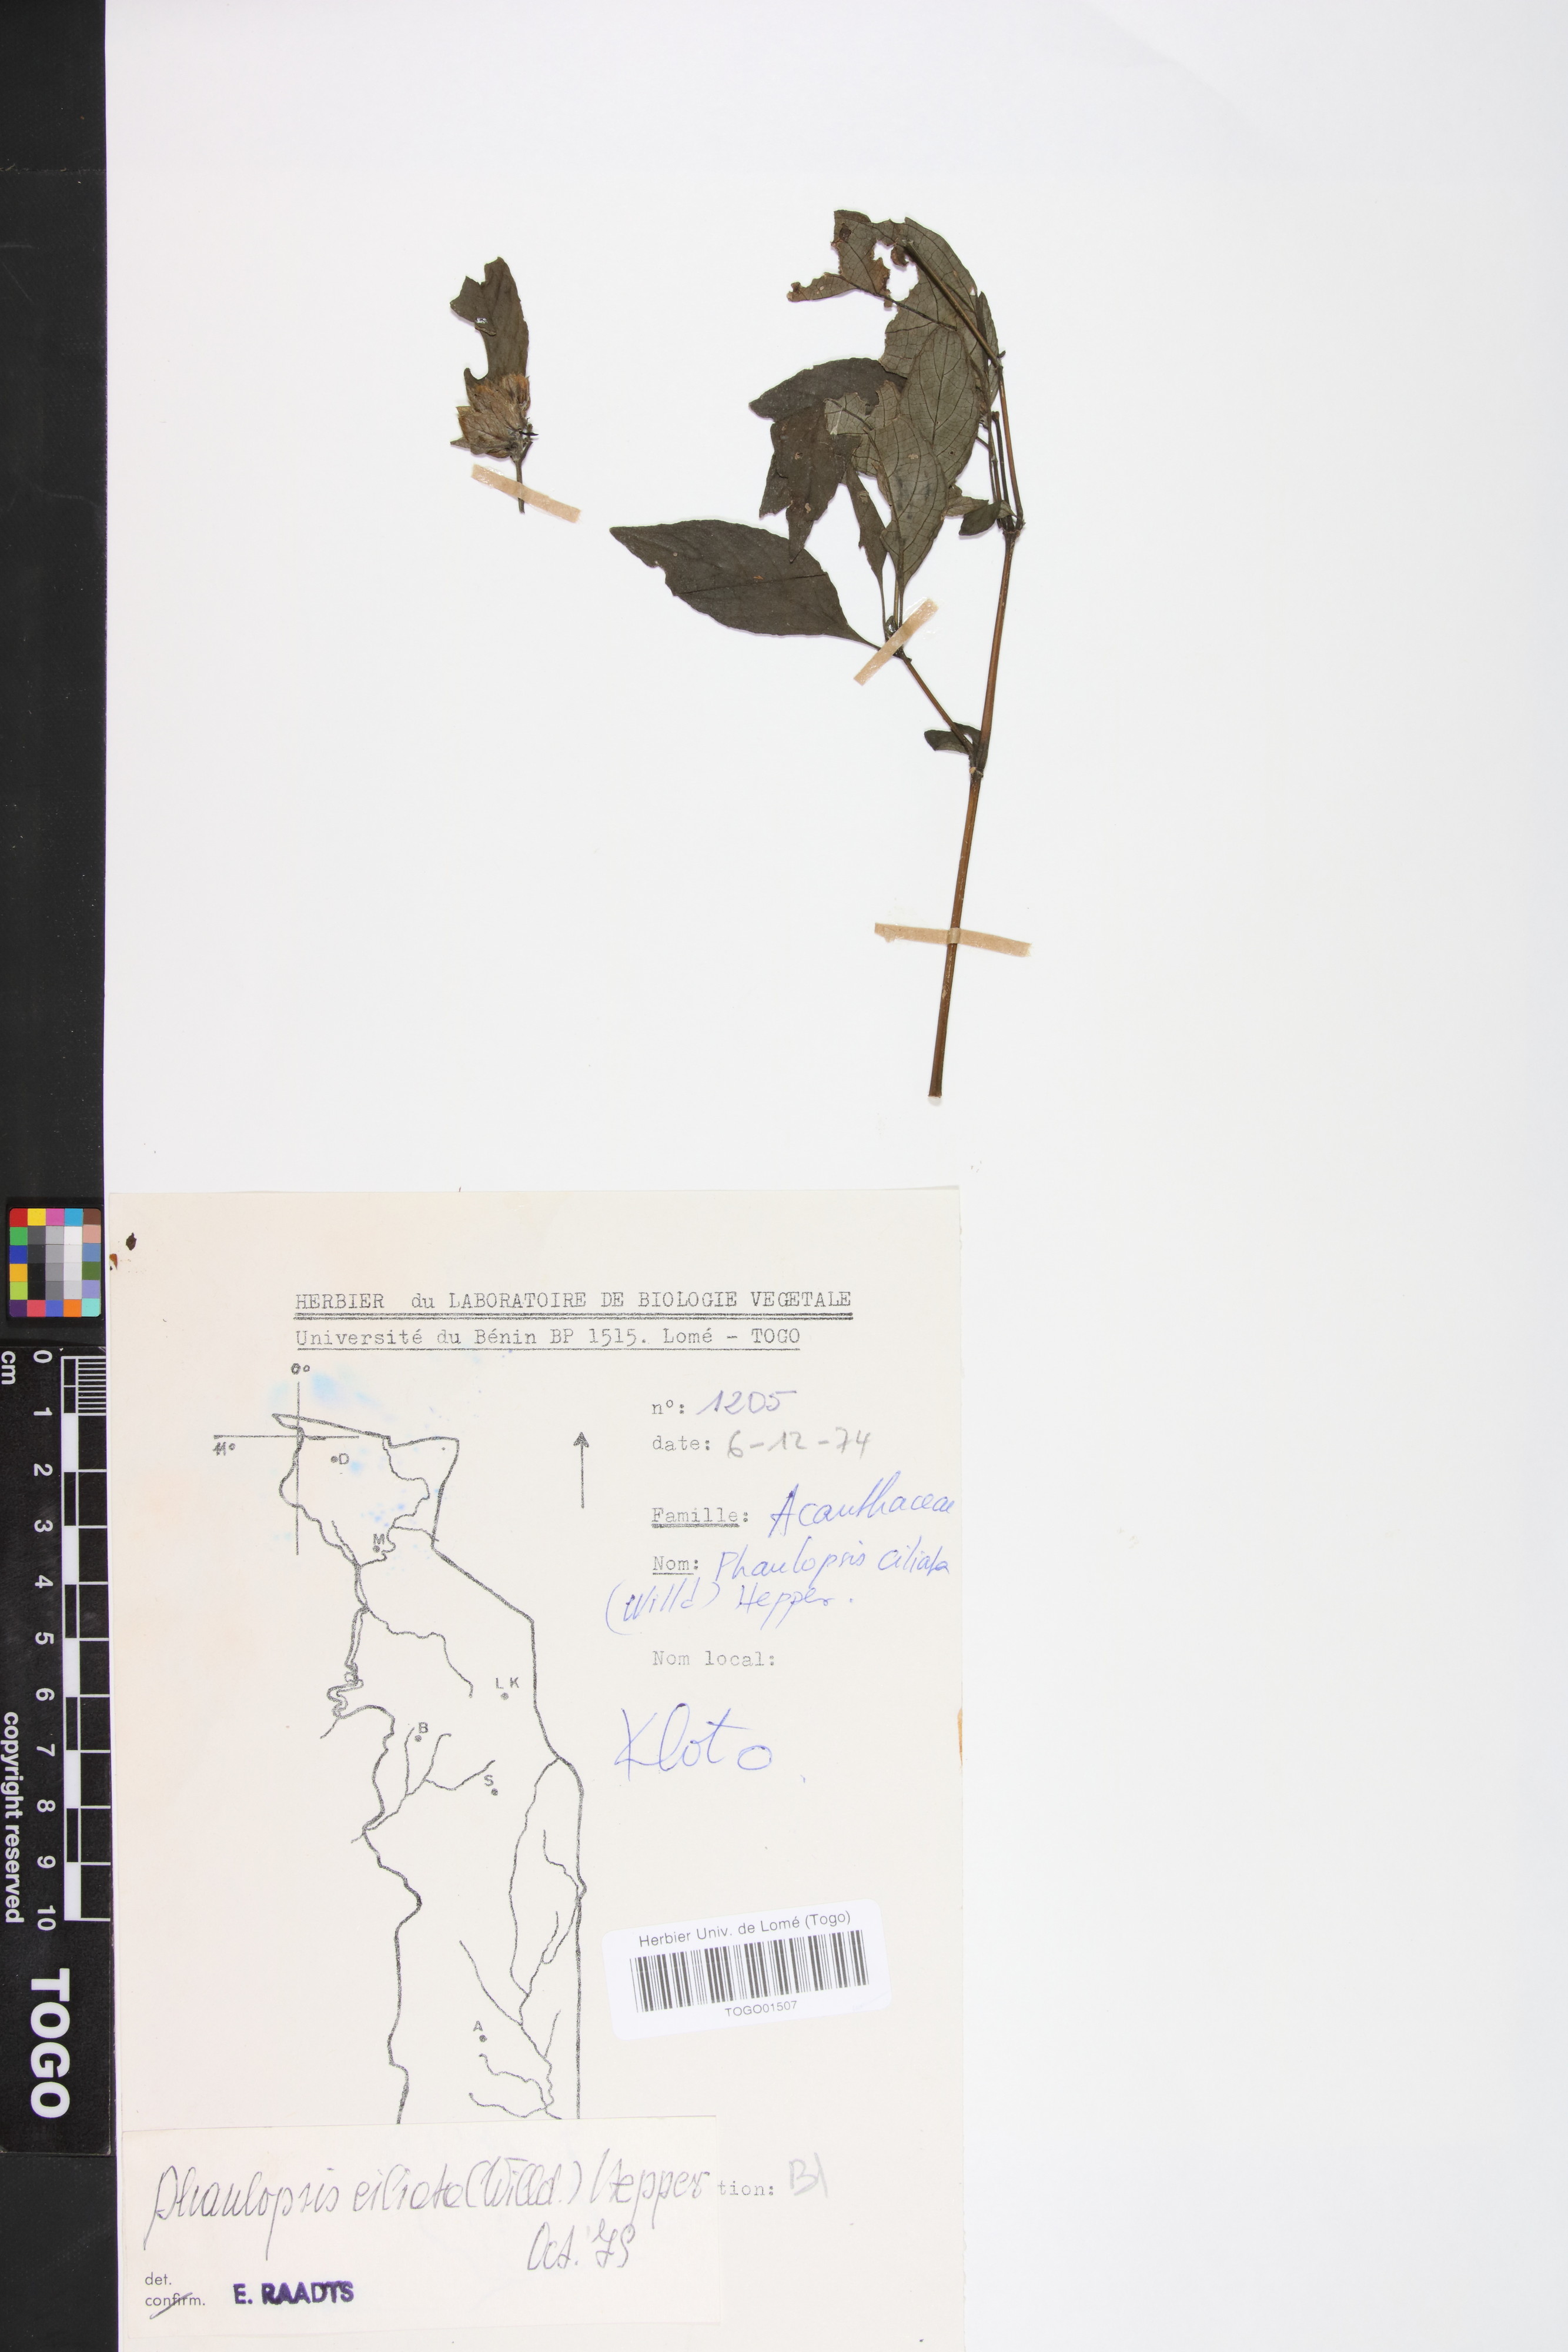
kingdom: Plantae
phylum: Tracheophyta
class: Magnoliopsida
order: Lamiales
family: Acanthaceae
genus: Phaulopsis
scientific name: Phaulopsis ciliata
